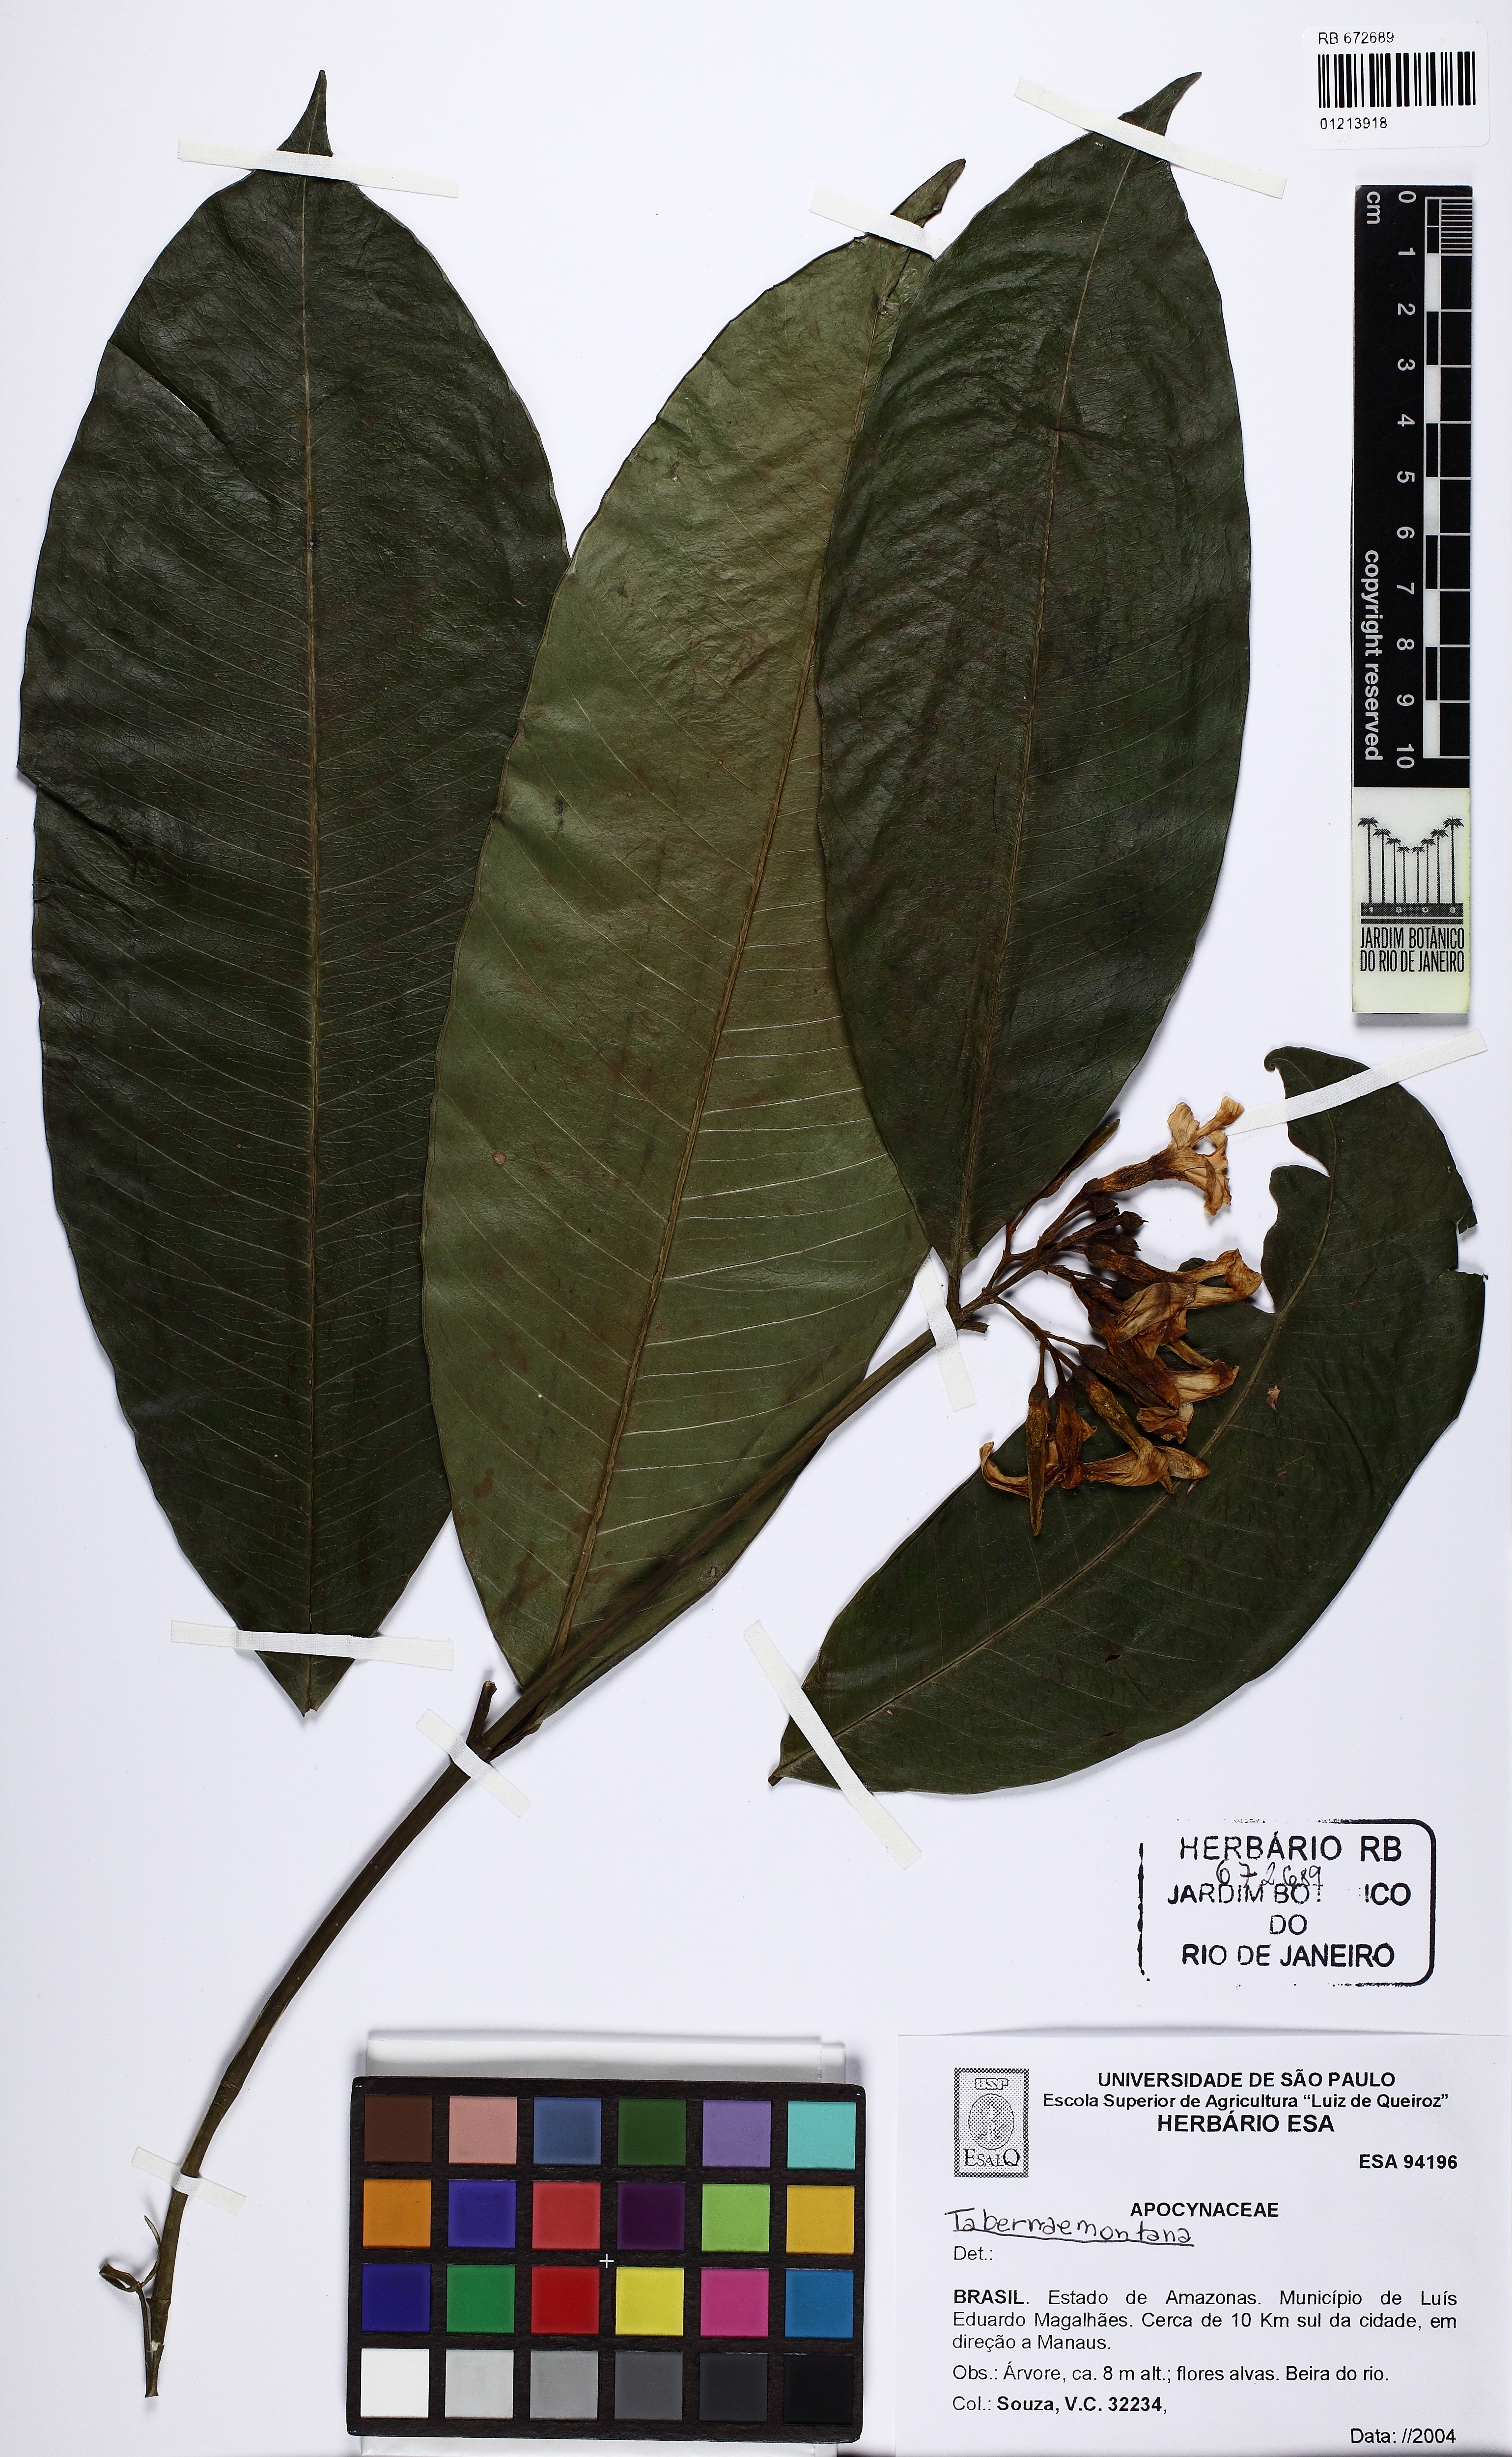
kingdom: Plantae
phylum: Tracheophyta
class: Magnoliopsida
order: Gentianales
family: Apocynaceae
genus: Tabernaemontana
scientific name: Tabernaemontana
